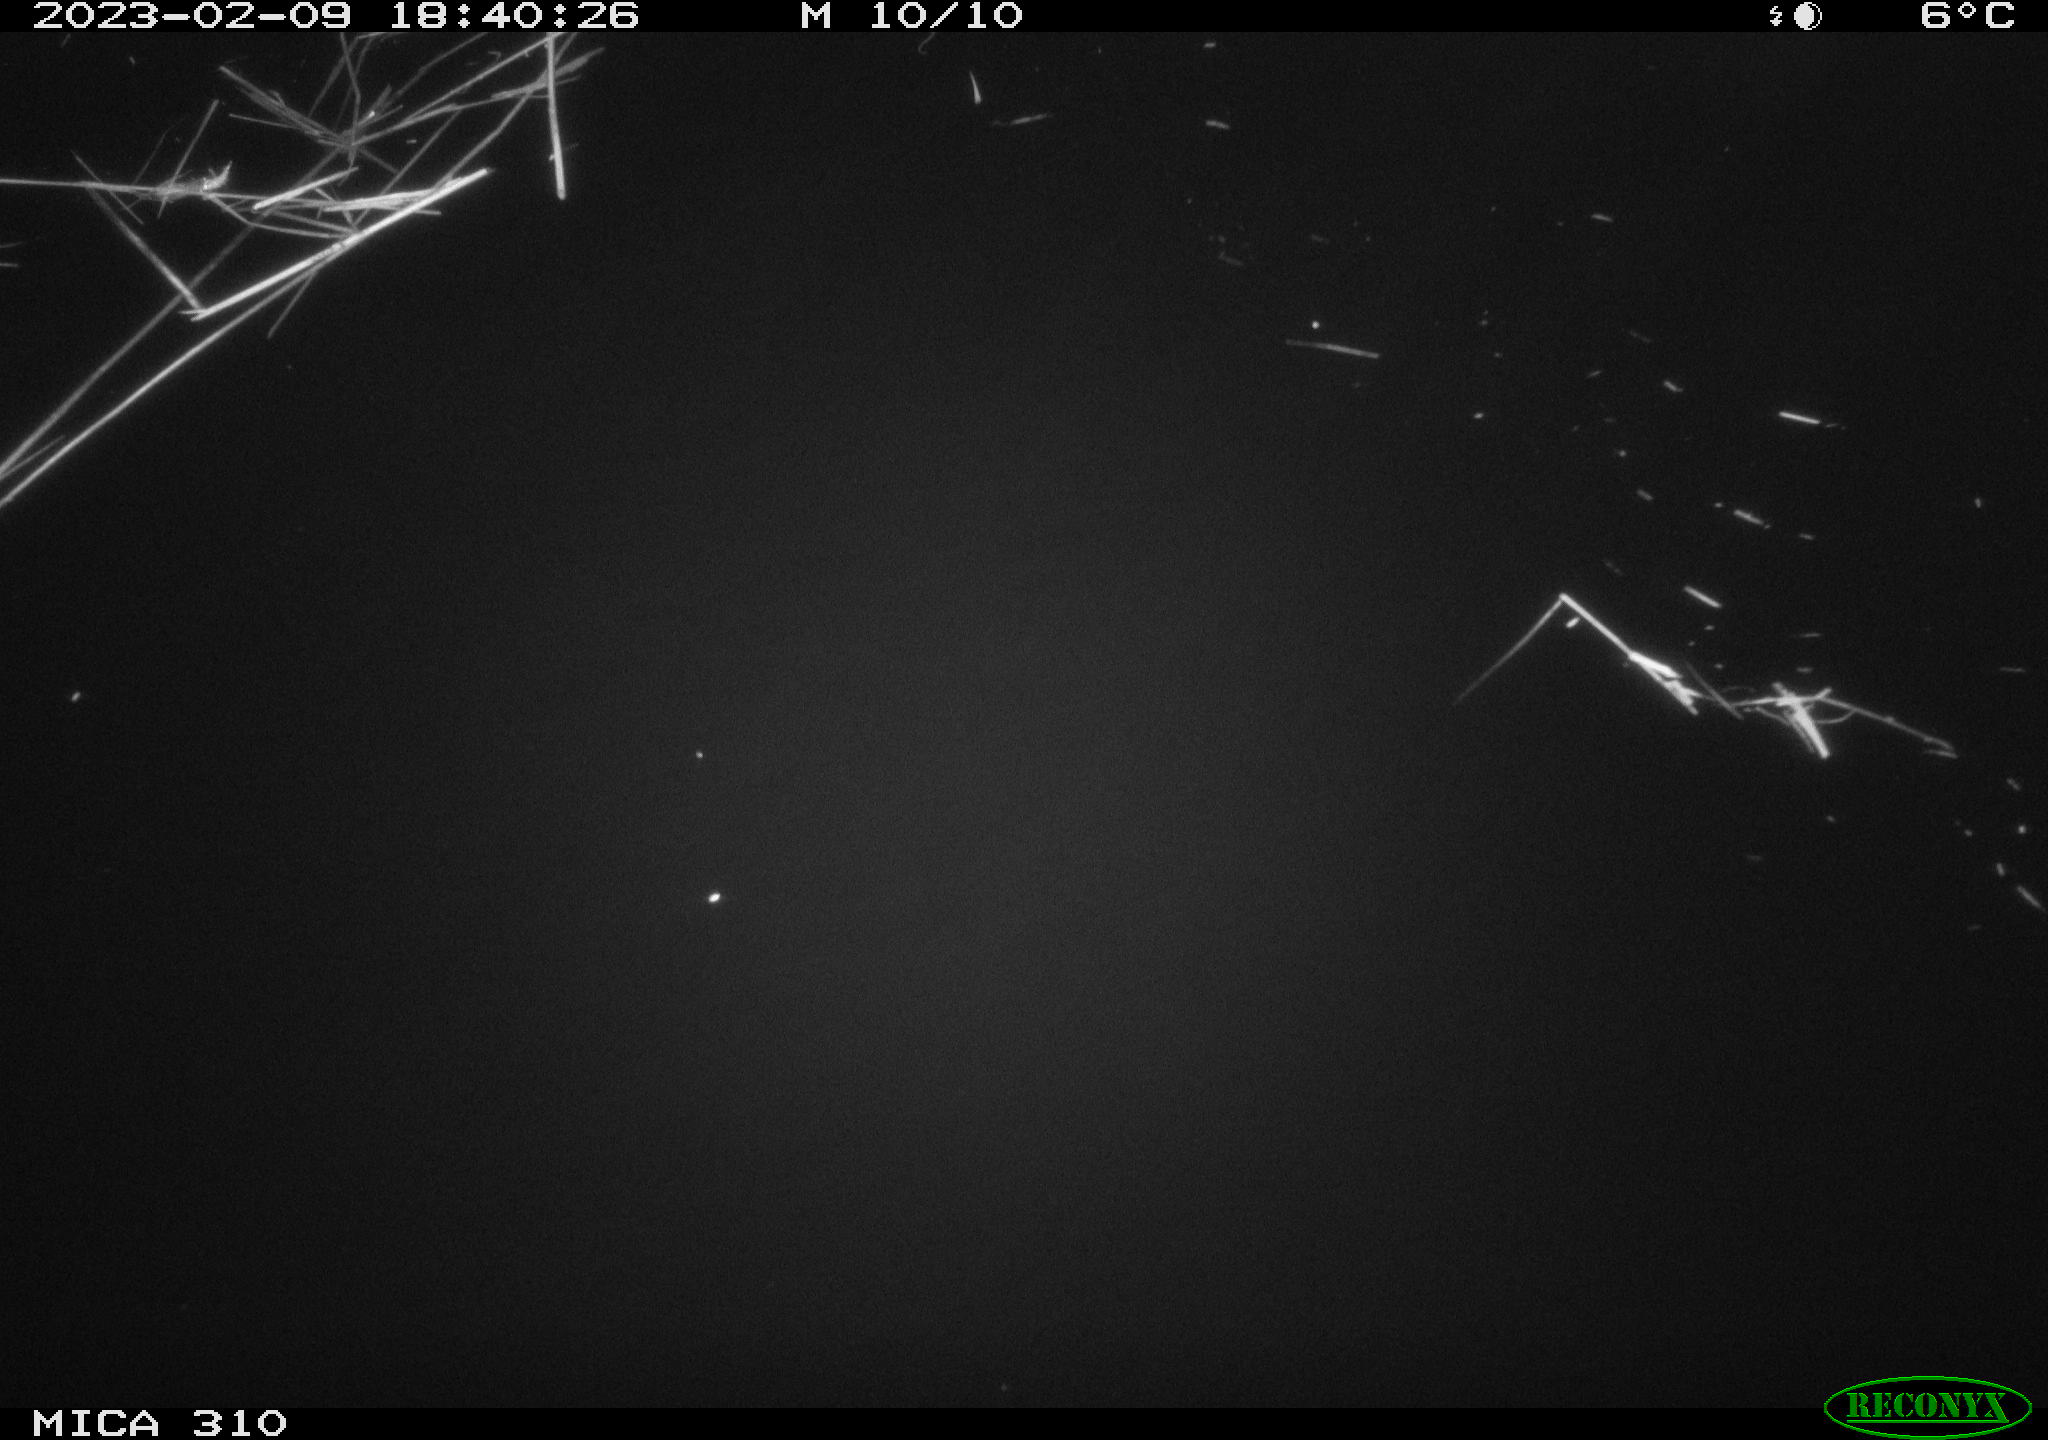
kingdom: Animalia
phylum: Chordata
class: Mammalia
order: Rodentia
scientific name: Rodentia
